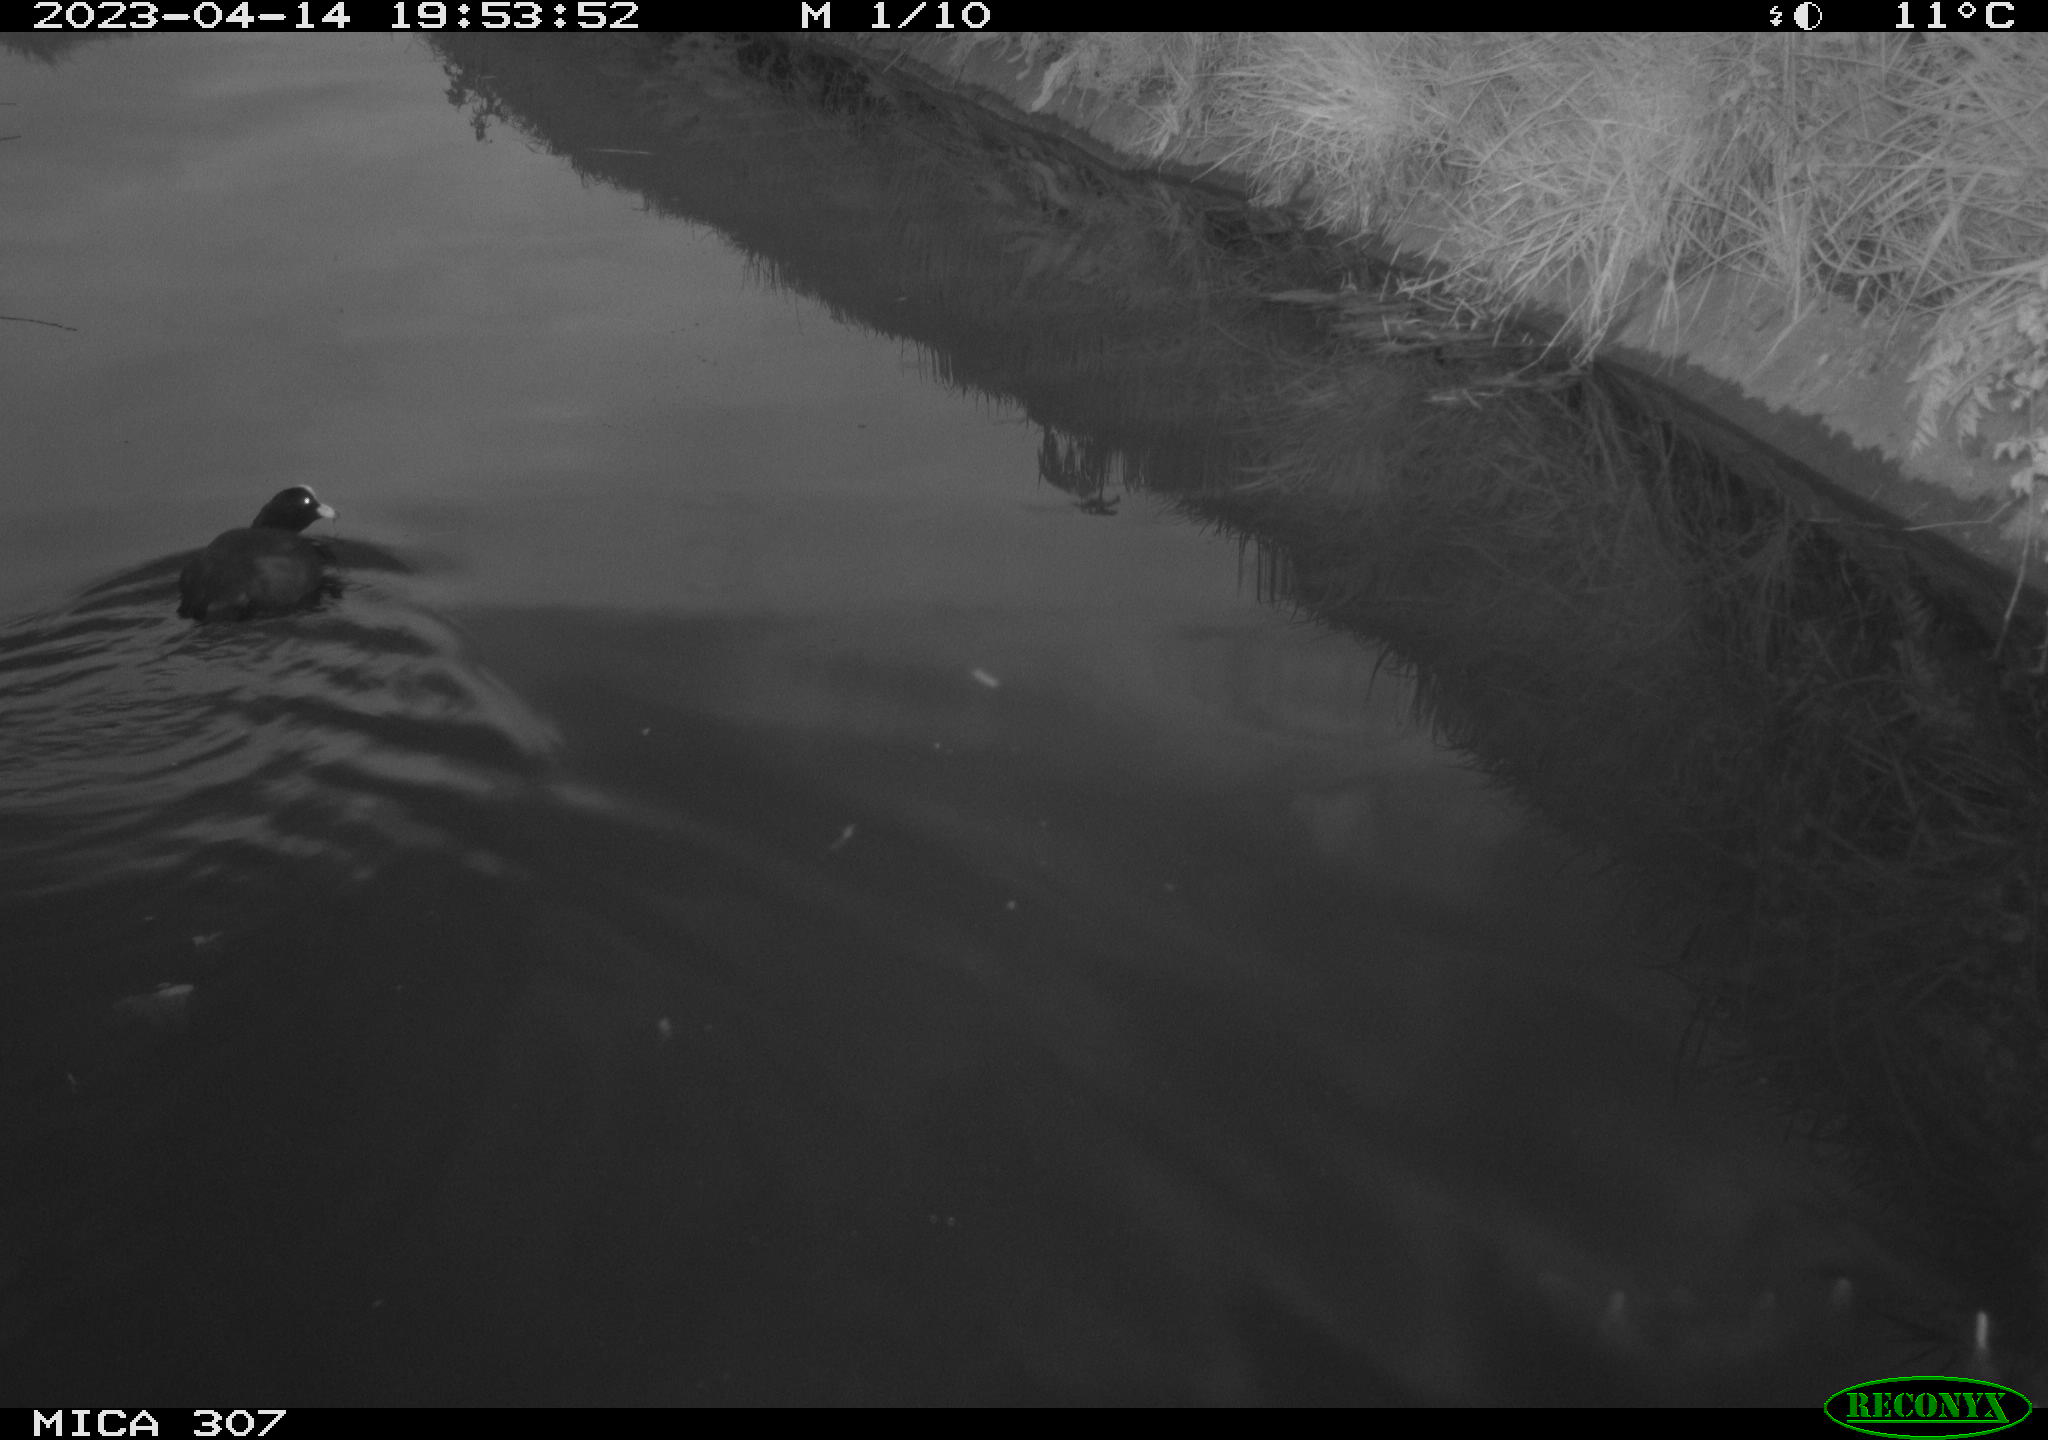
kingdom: Animalia
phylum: Chordata
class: Aves
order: Gruiformes
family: Rallidae
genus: Fulica
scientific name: Fulica atra
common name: Eurasian coot
